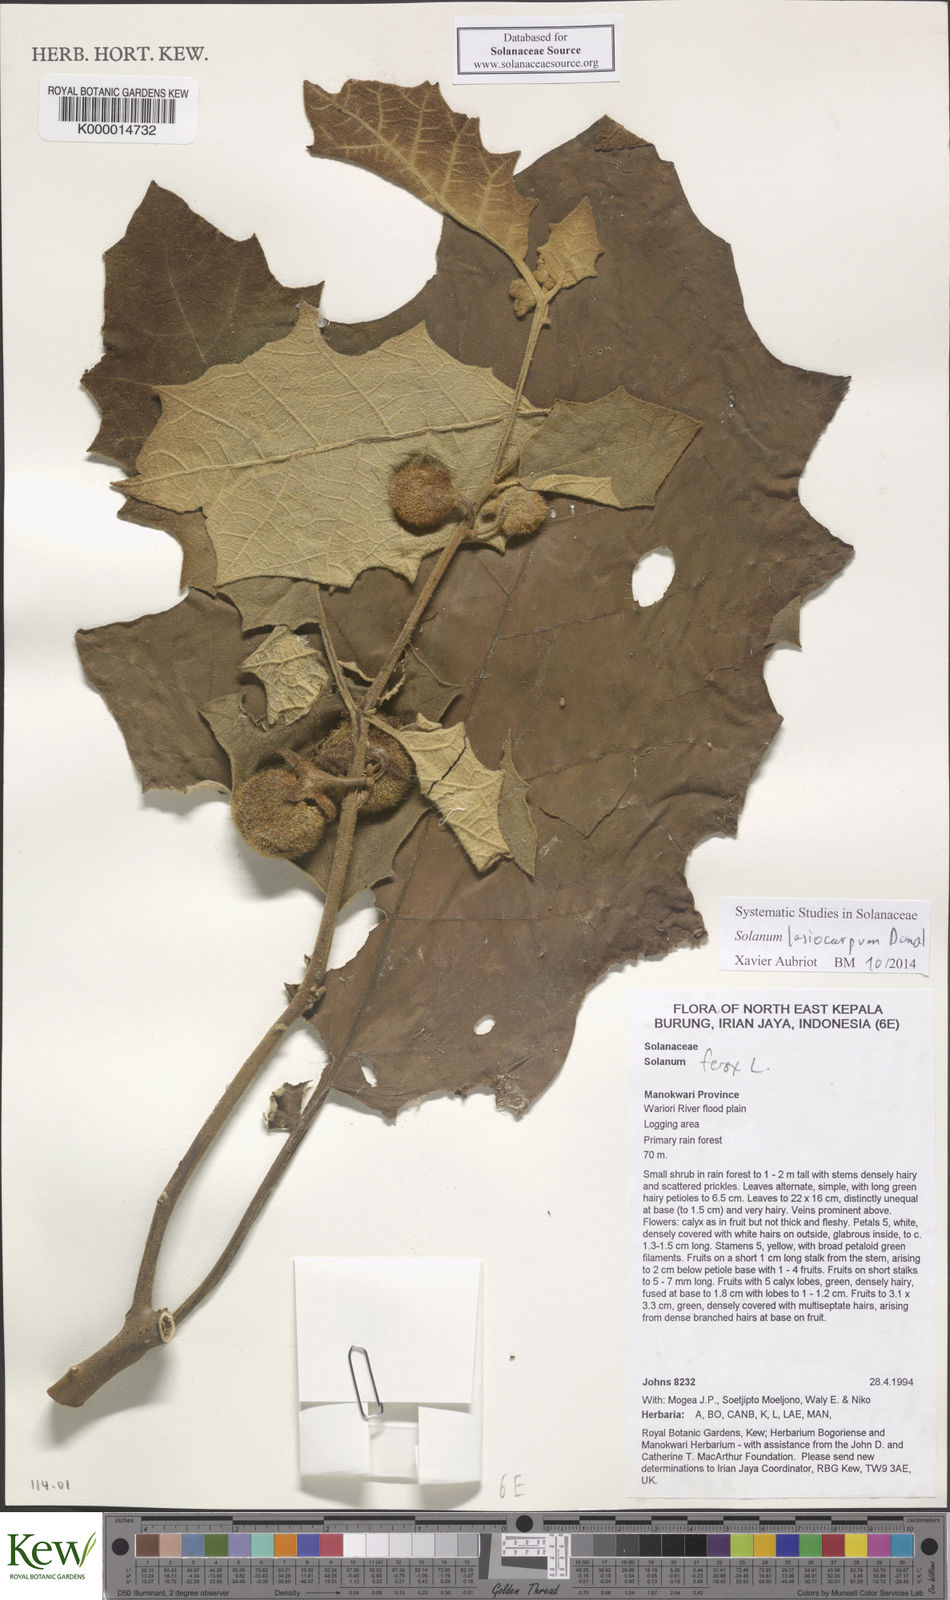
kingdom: Plantae
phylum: Tracheophyta
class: Magnoliopsida
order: Solanales
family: Solanaceae
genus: Solanum
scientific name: Solanum lasiocarpum
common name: Indian nightshade
